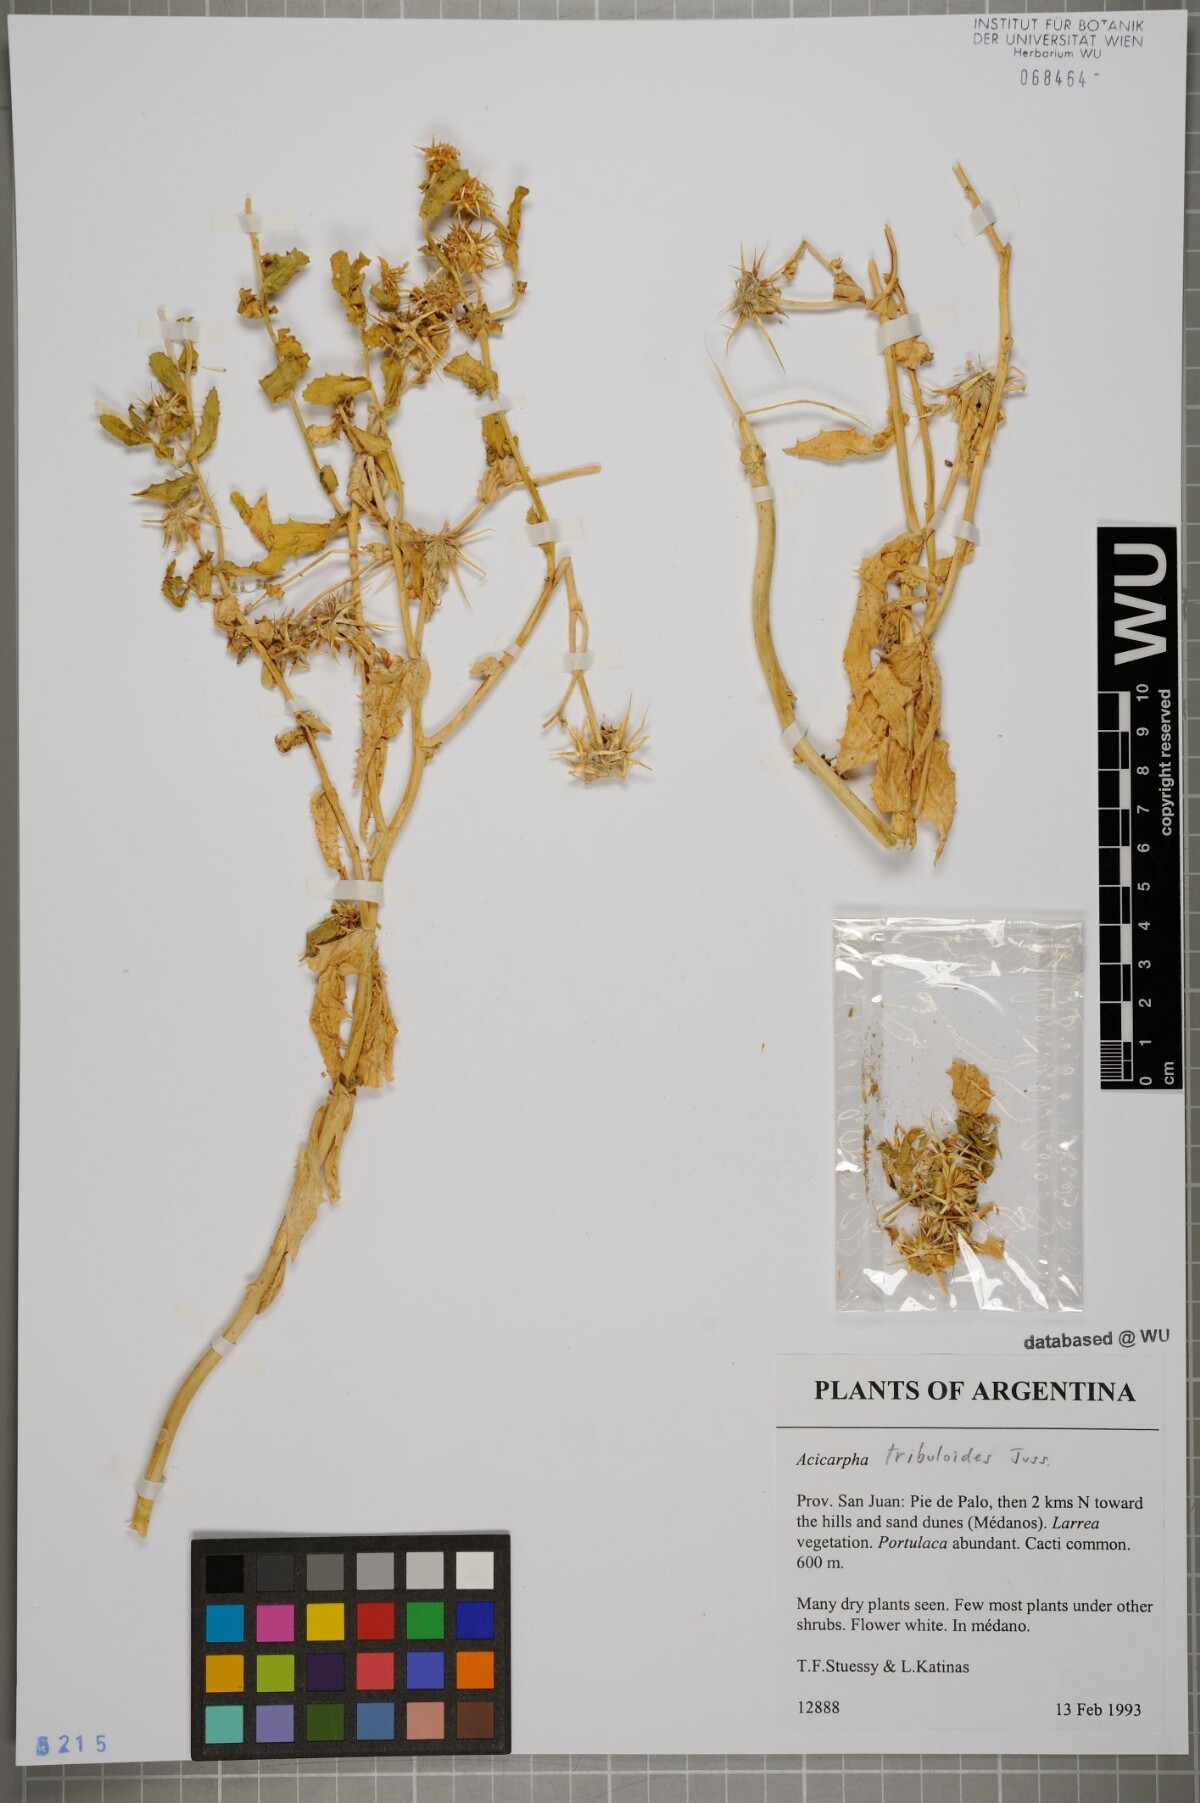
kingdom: Plantae
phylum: Tracheophyta
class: Magnoliopsida
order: Asterales
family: Calyceraceae
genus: Acicarpha
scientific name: Acicarpha tribuloides
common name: Madam gorgon
